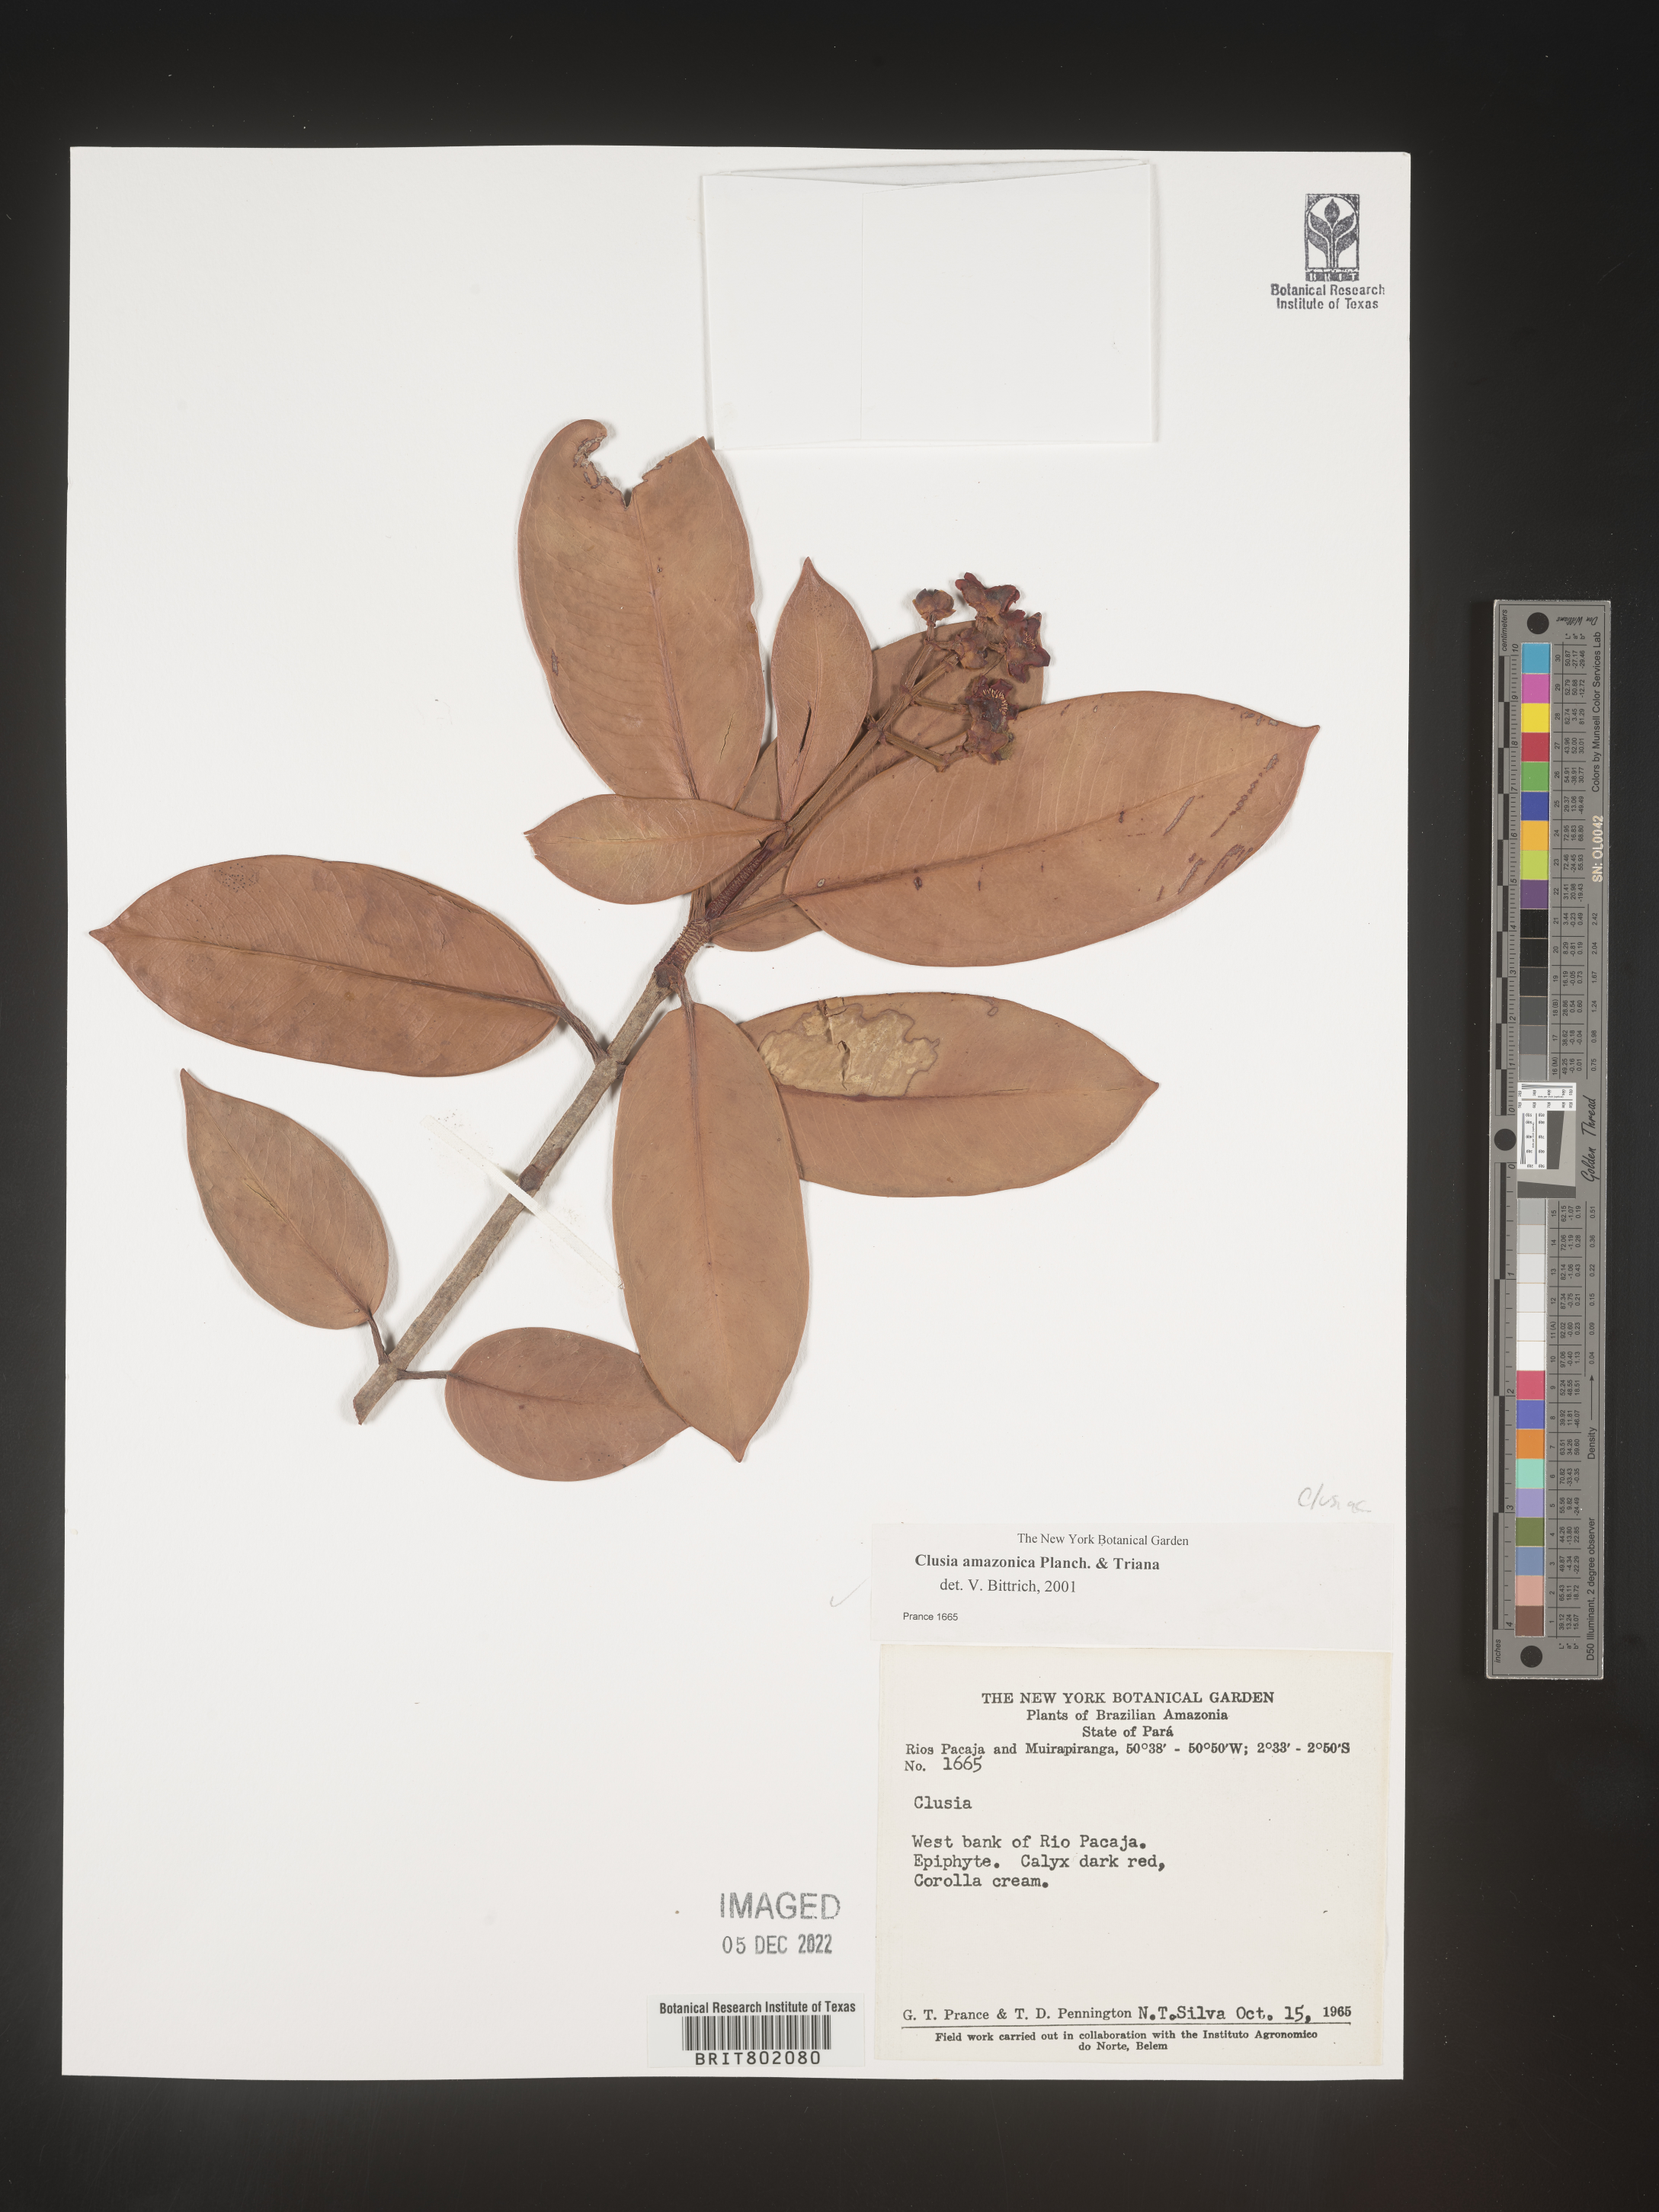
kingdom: Plantae
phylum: Tracheophyta
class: Magnoliopsida
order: Malpighiales
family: Clusiaceae
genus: Clusia
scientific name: Clusia amazonica
